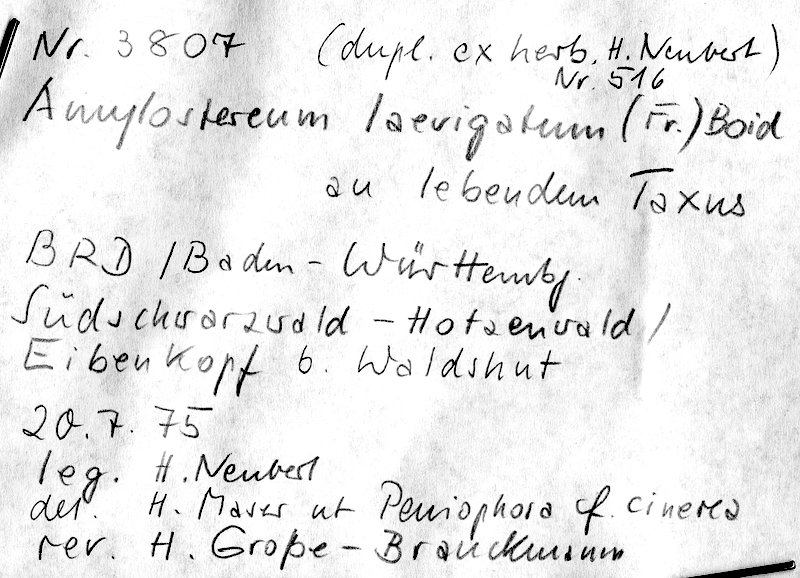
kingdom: Plantae
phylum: Tracheophyta
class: Pinopsida
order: Pinales
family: Taxaceae
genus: Taxus
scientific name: Taxus
